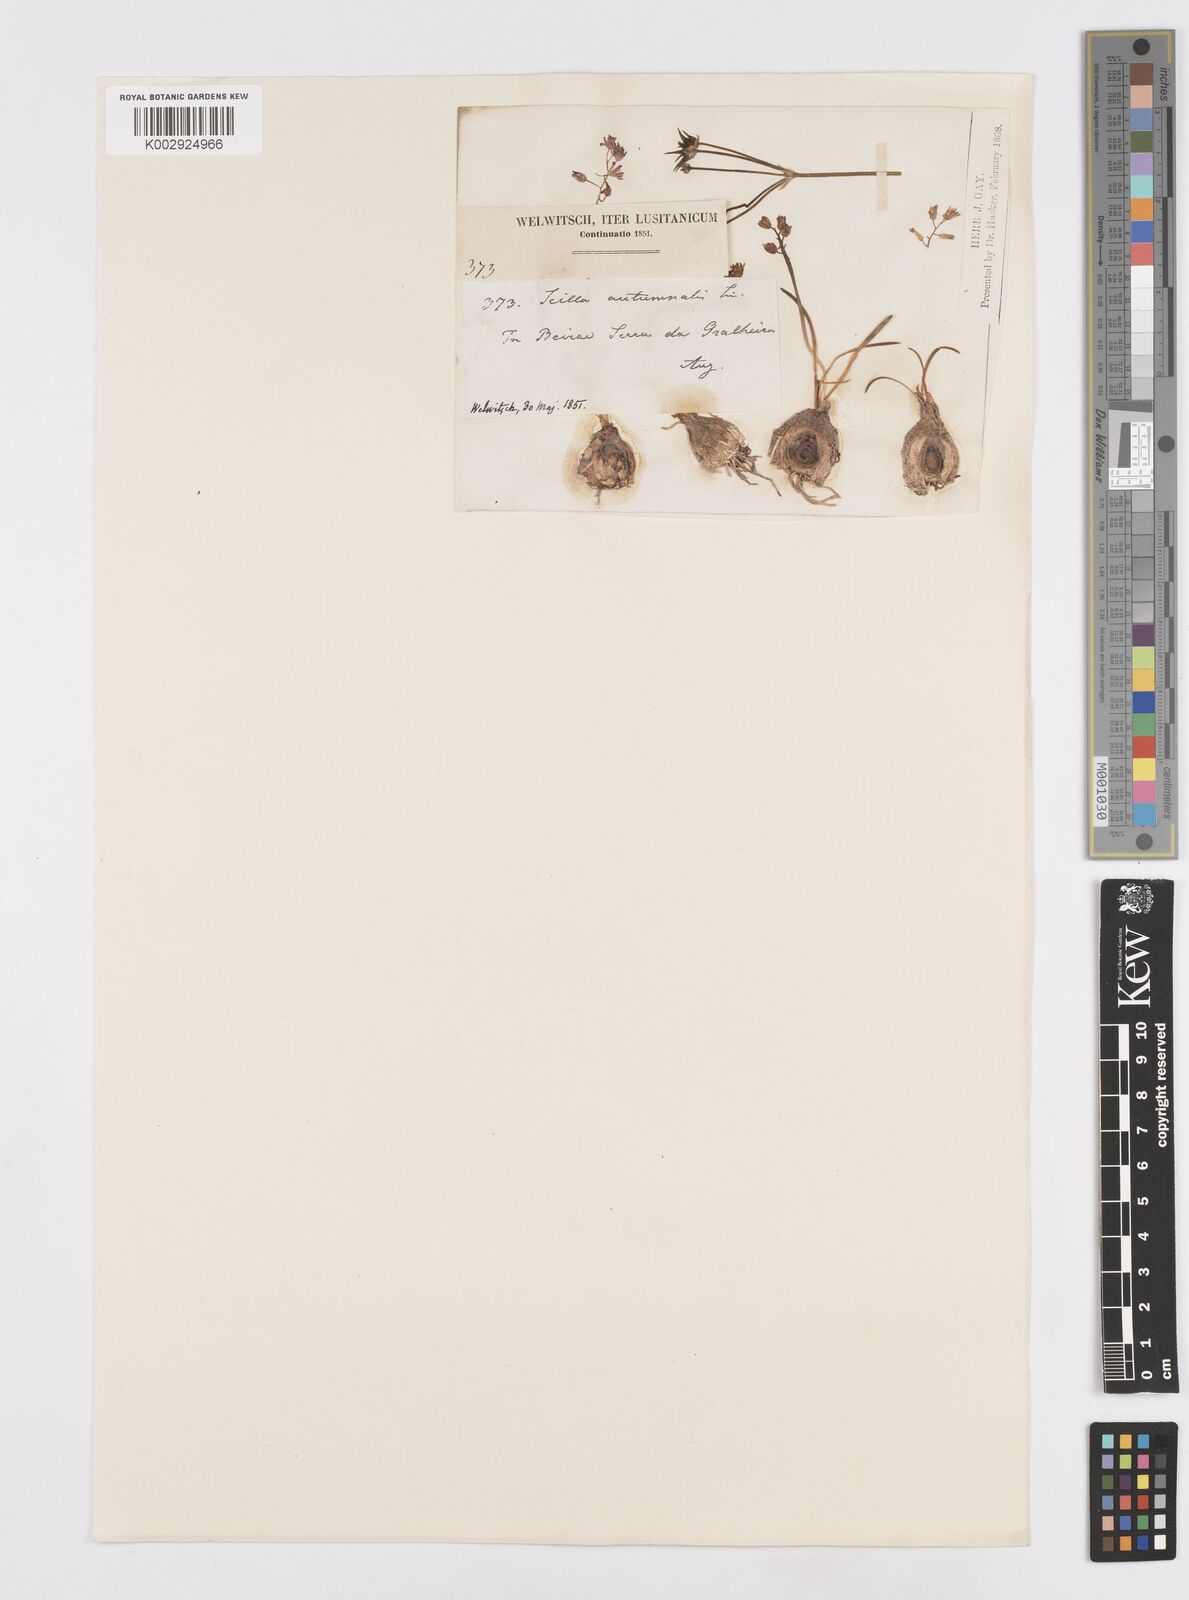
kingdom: Plantae
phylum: Tracheophyta
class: Liliopsida
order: Asparagales
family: Asparagaceae
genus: Prospero
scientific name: Prospero autumnale
